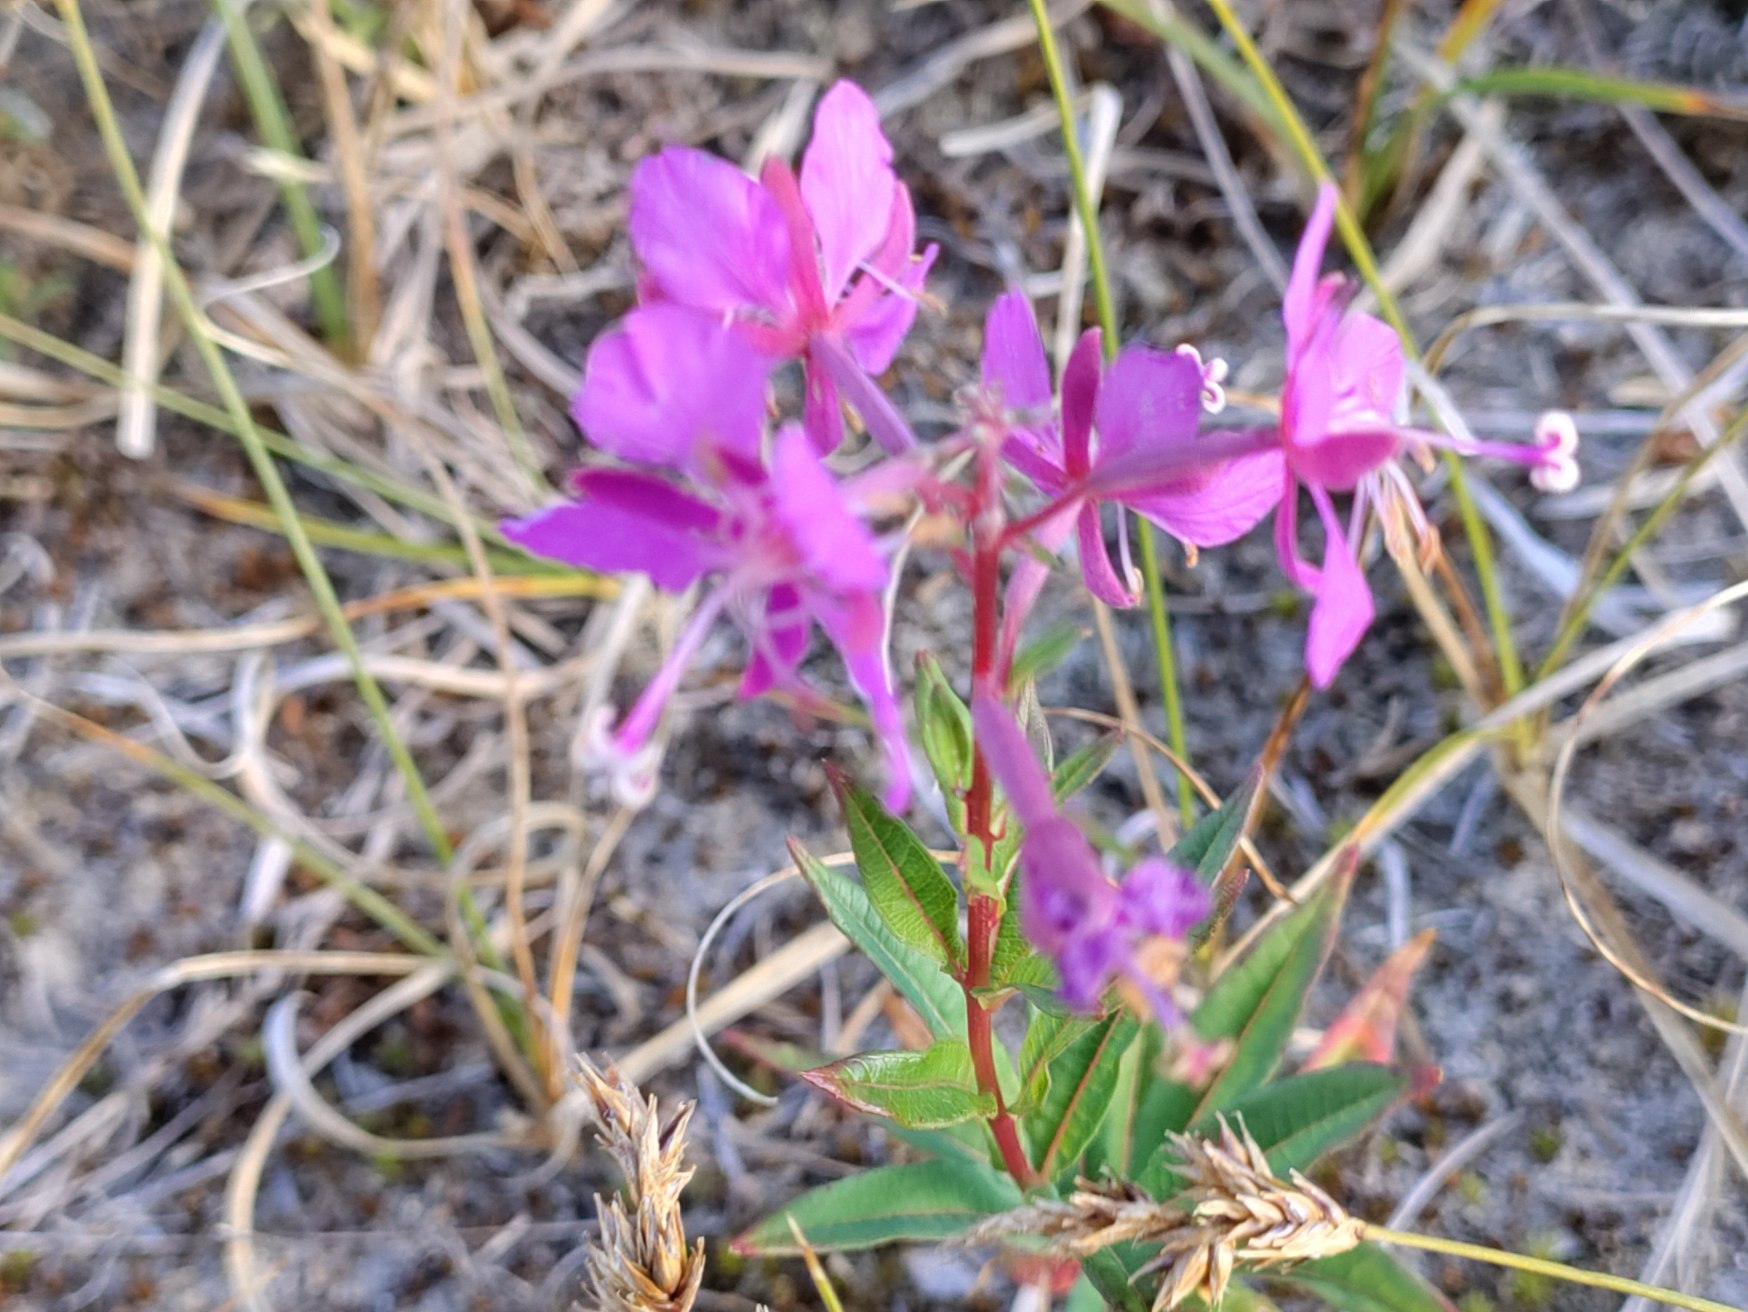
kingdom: Plantae
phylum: Tracheophyta
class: Magnoliopsida
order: Myrtales
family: Onagraceae
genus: Chamaenerion
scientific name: Chamaenerion angustifolium
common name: Gederams
